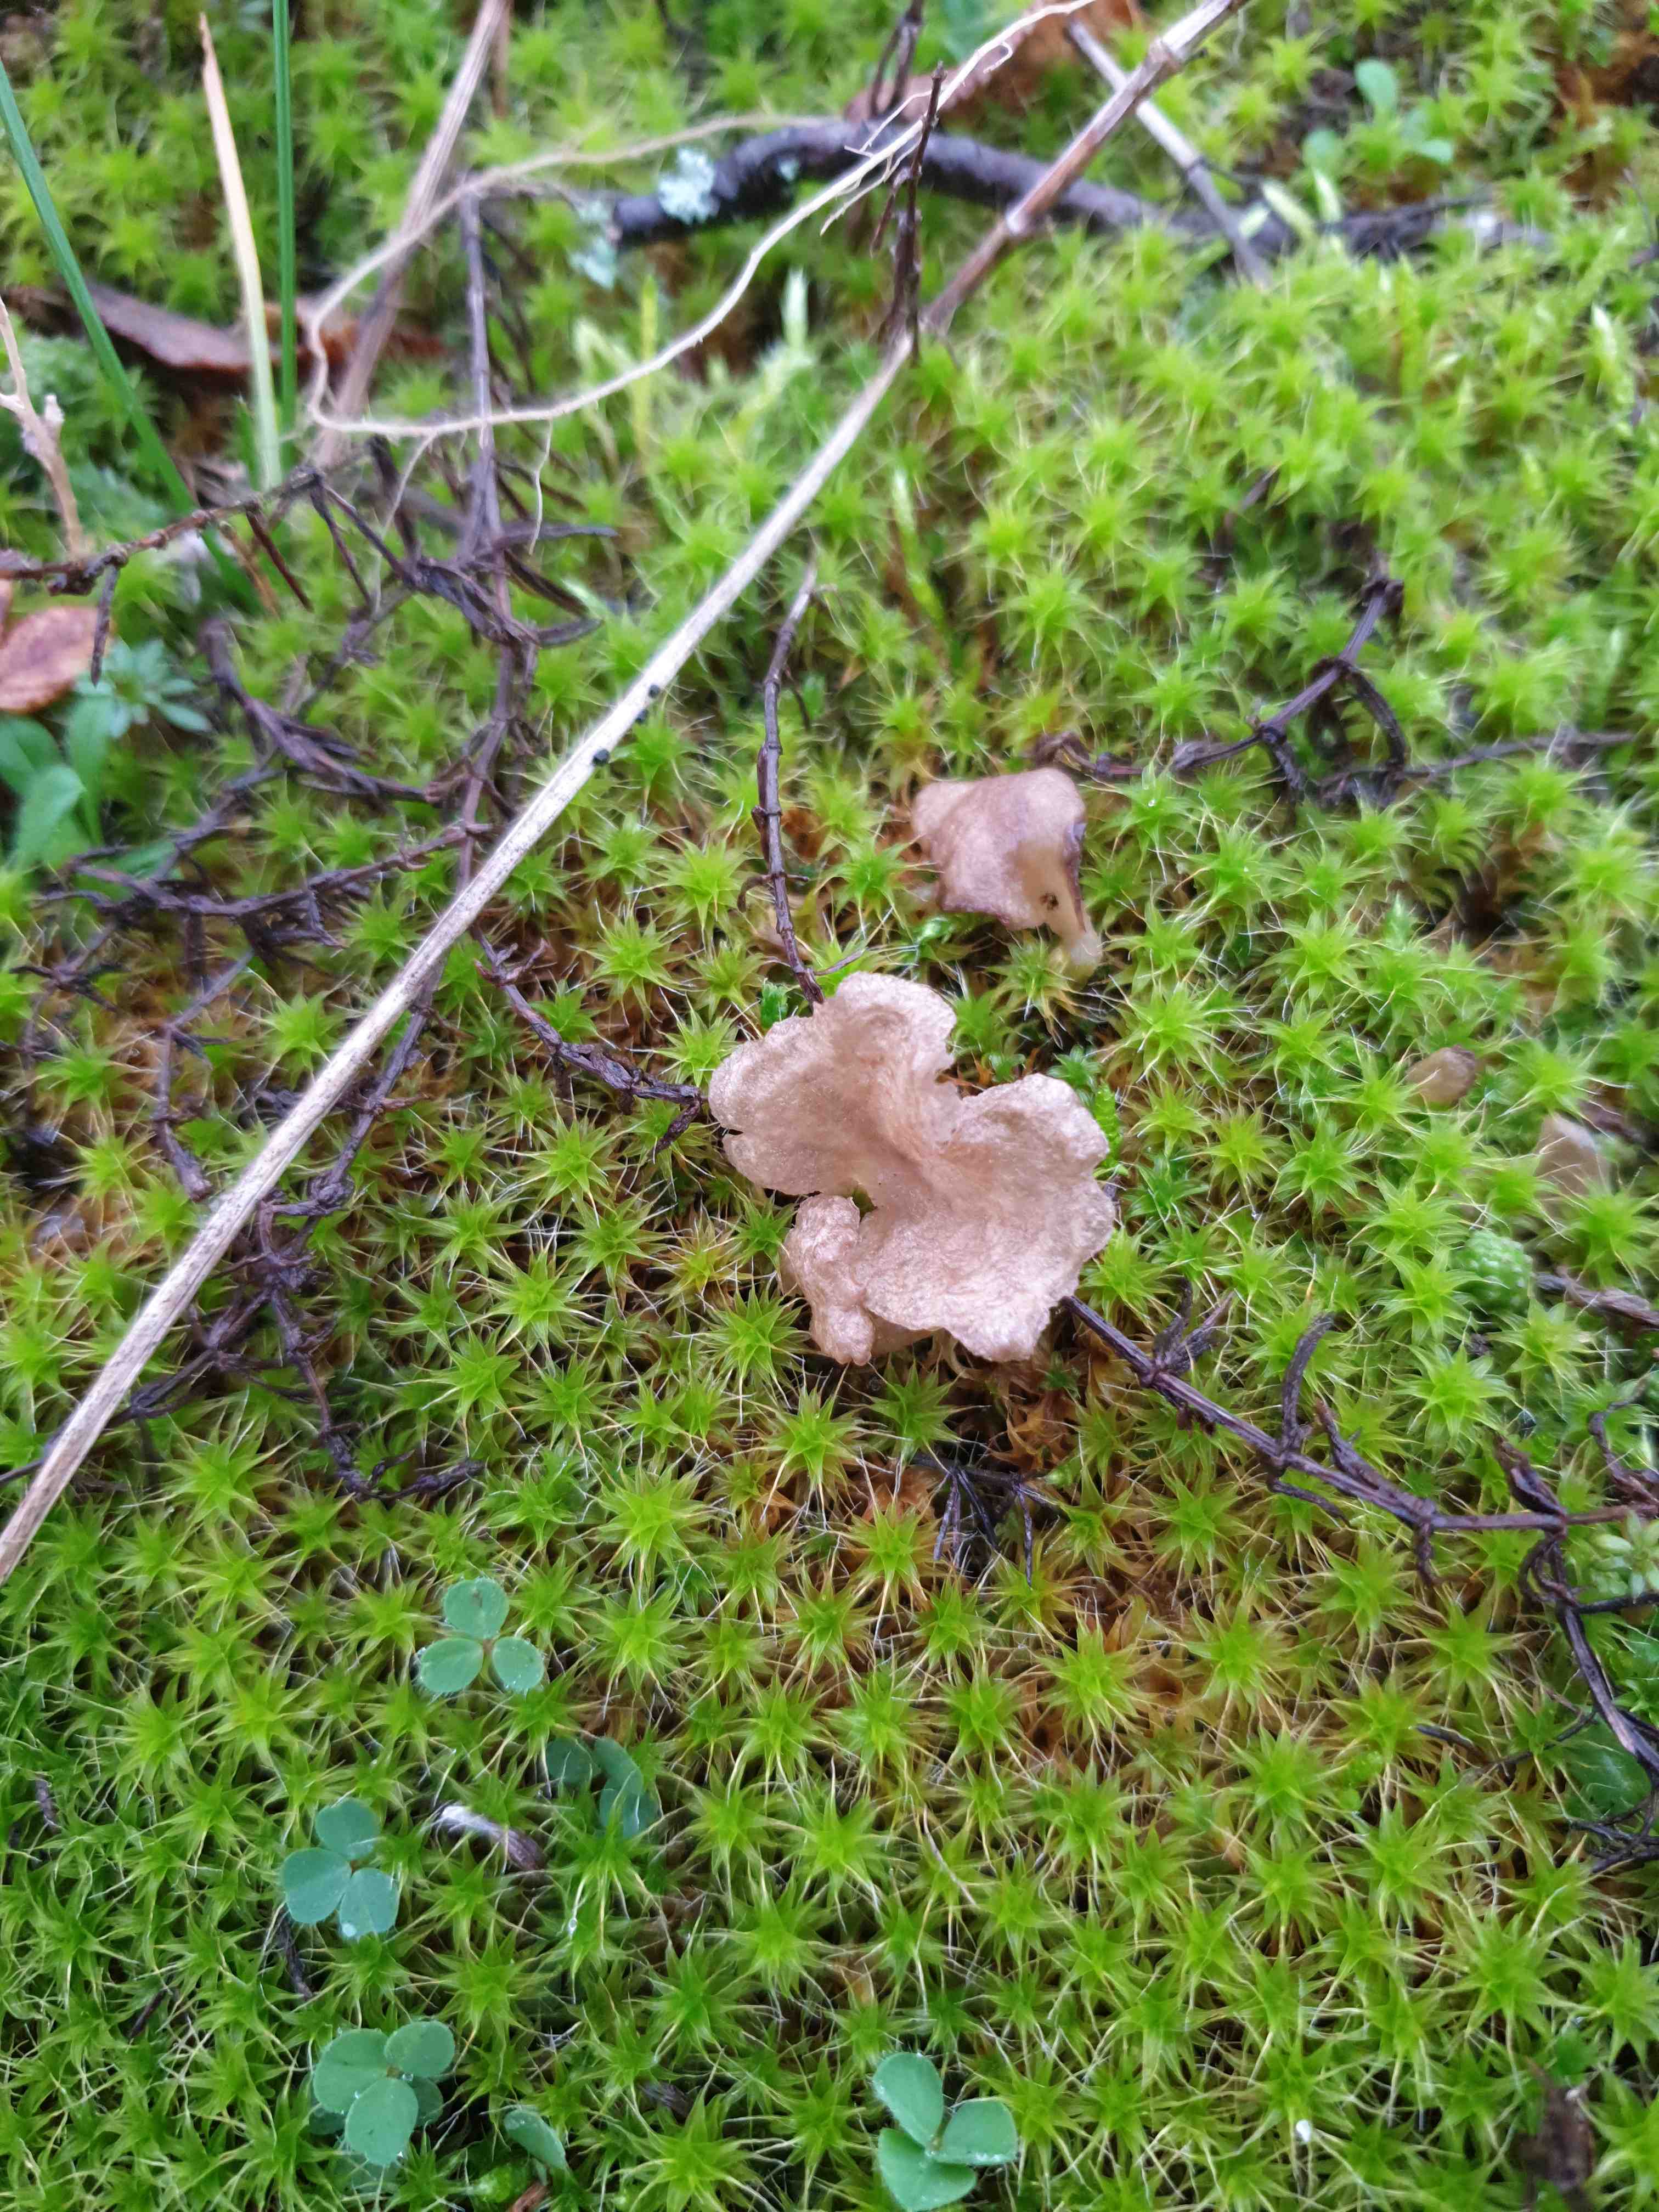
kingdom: Fungi
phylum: Basidiomycota
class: Agaricomycetes
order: Agaricales
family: Hygrophoraceae
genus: Arrhenia
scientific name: Arrhenia spathulata
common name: skæv fontænehat
